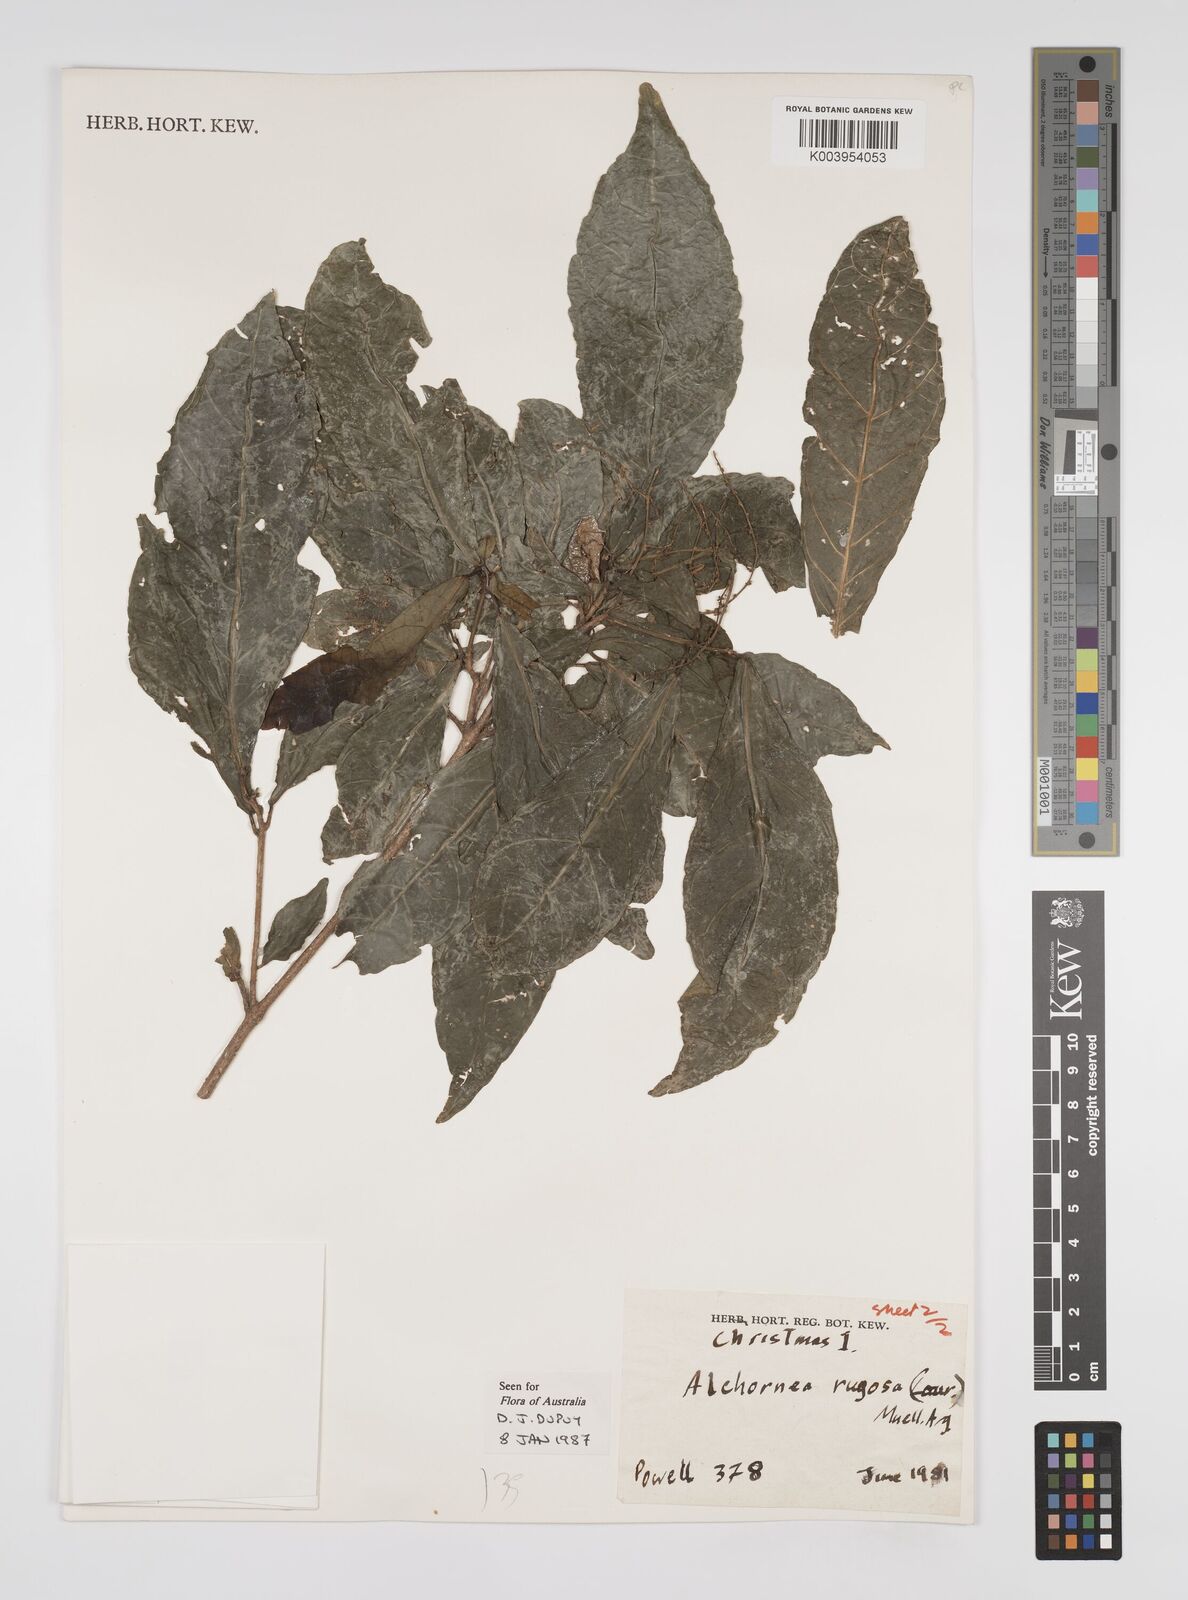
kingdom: Plantae
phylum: Tracheophyta
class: Magnoliopsida
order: Malpighiales
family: Euphorbiaceae
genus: Alchornea
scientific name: Alchornea rugosa
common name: Alchorntree
